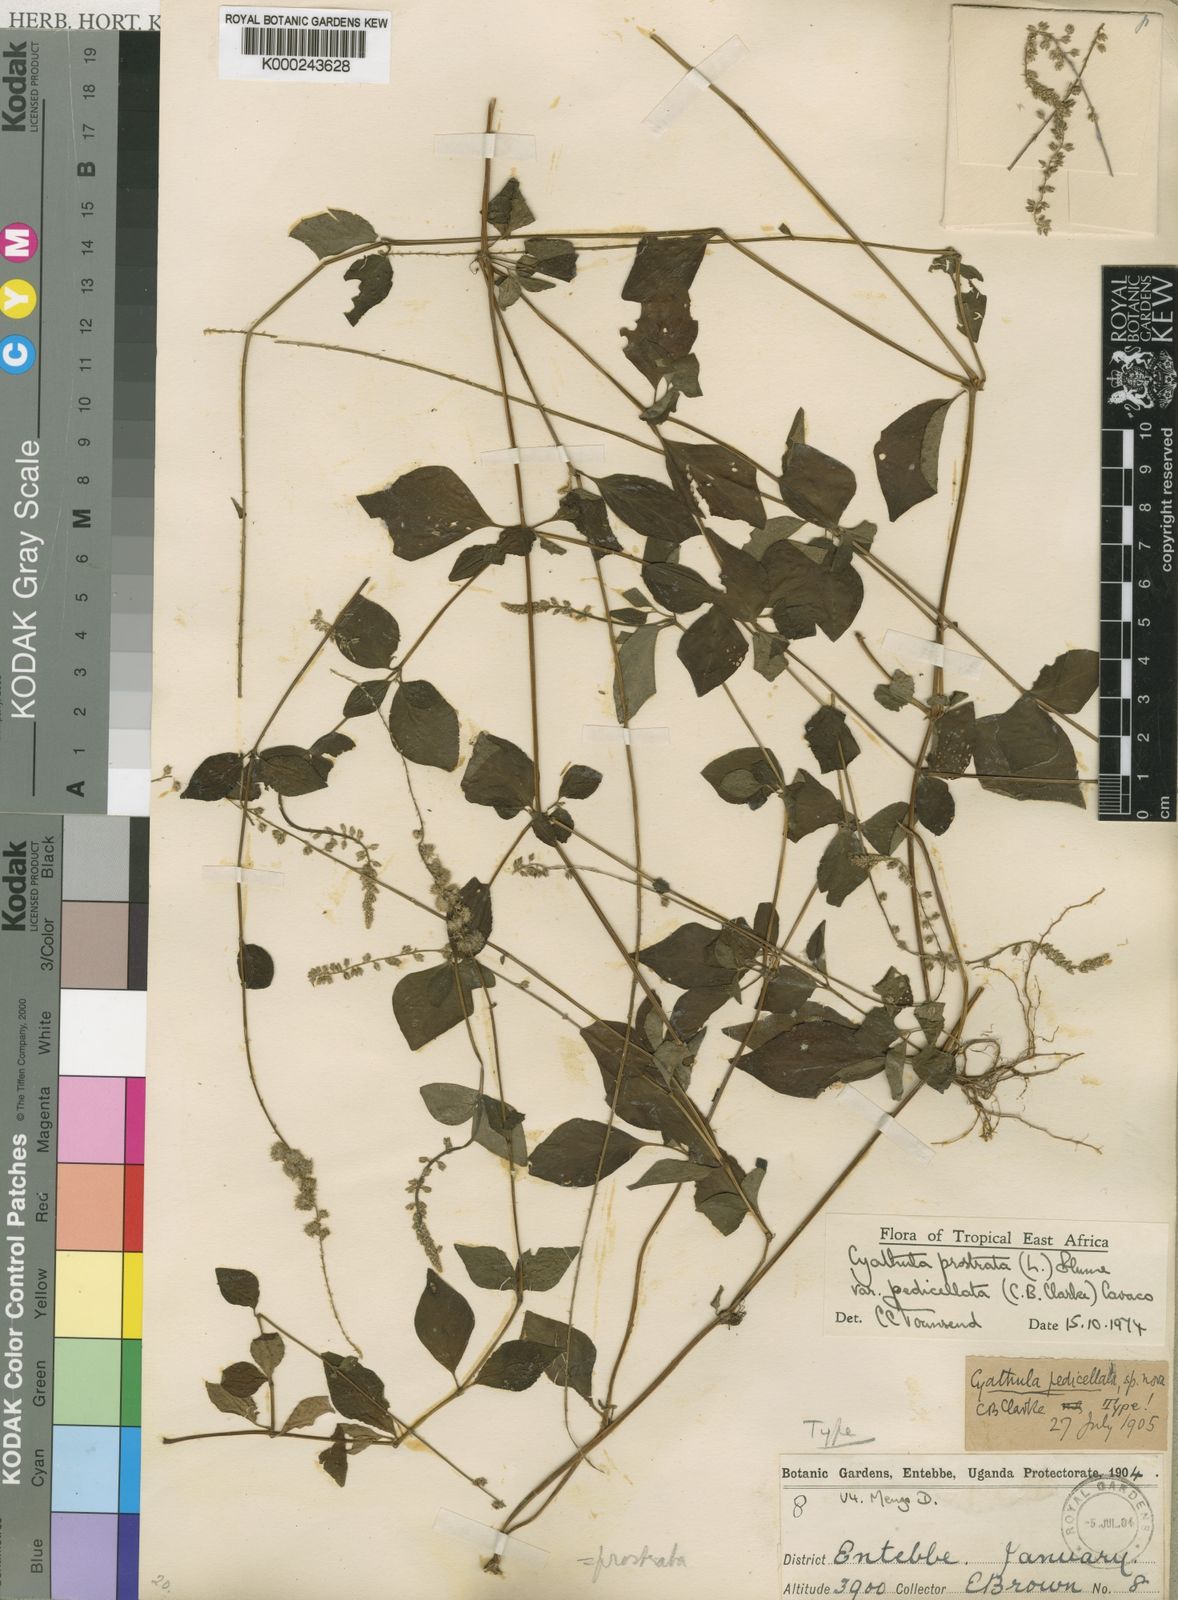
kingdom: Plantae
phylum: Tracheophyta
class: Magnoliopsida
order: Caryophyllales
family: Amaranthaceae
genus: Cyathula
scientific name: Cyathula prostrata
